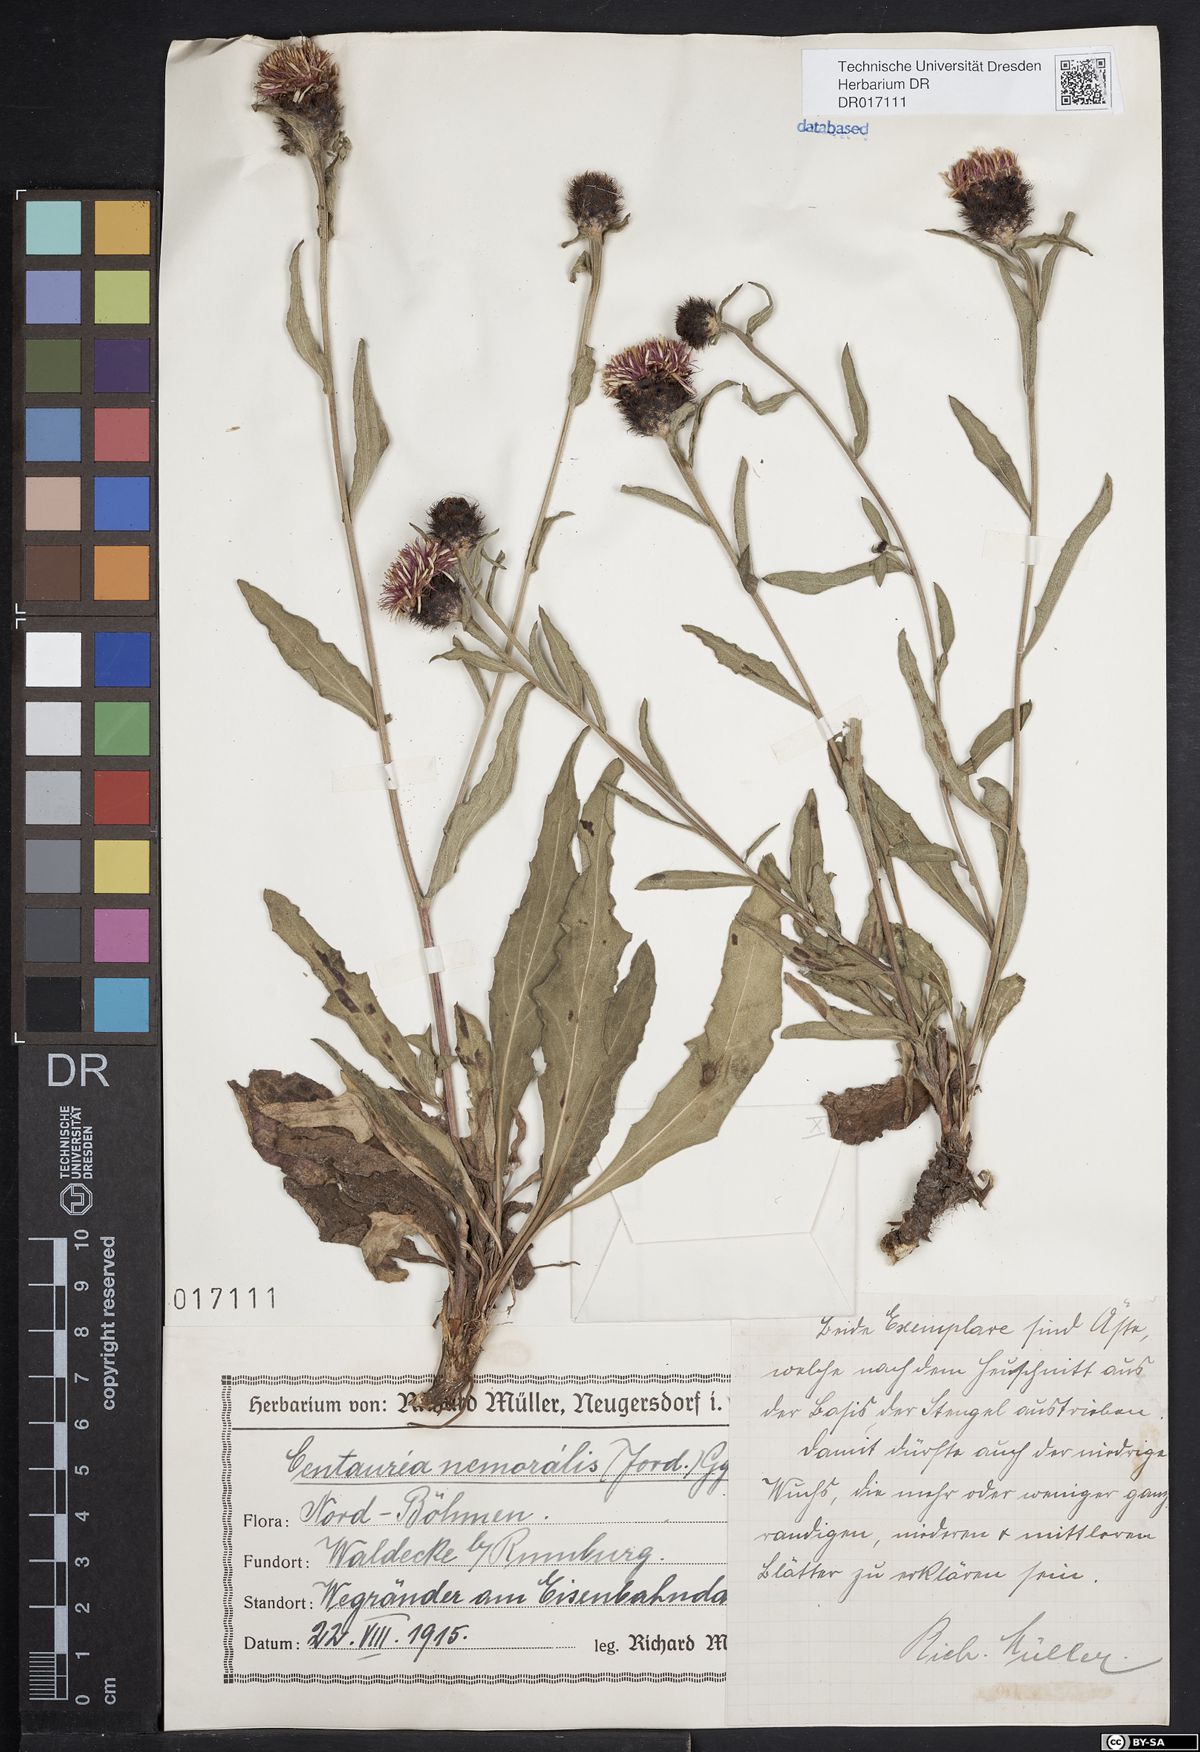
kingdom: Plantae
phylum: Tracheophyta
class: Magnoliopsida
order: Asterales
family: Asteraceae
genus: Centaurea
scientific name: Centaurea nigra
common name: Lesser knapweed
